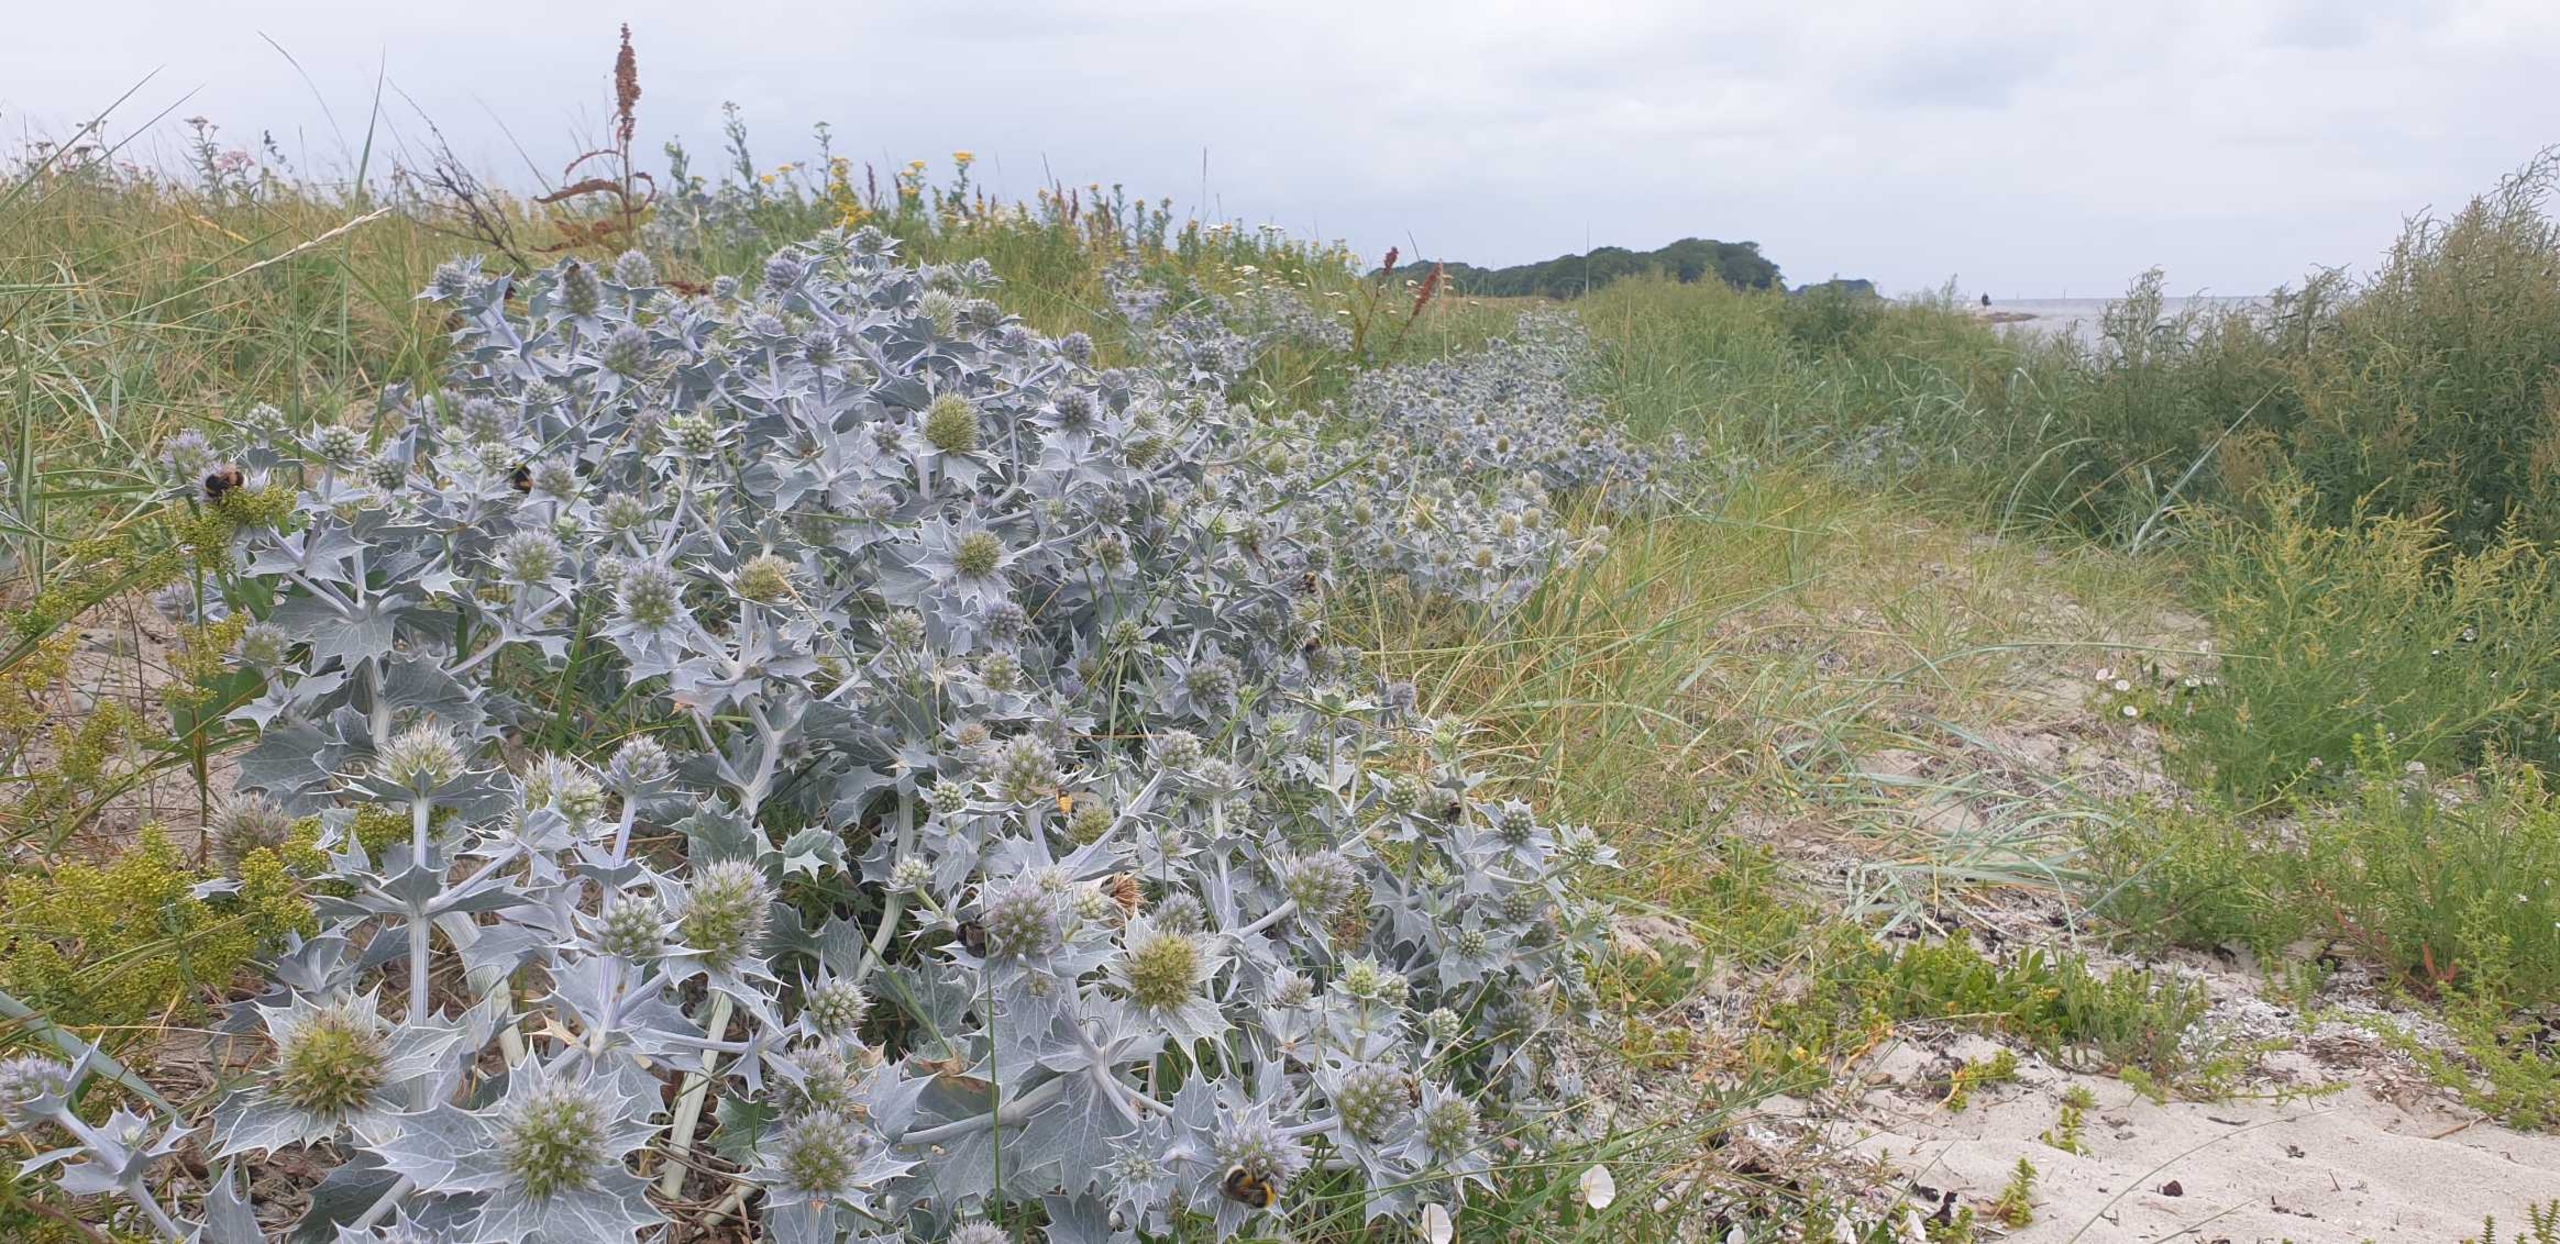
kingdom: Plantae
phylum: Tracheophyta
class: Magnoliopsida
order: Apiales
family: Apiaceae
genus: Eryngium
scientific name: Eryngium maritimum
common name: Strand-mandstro
